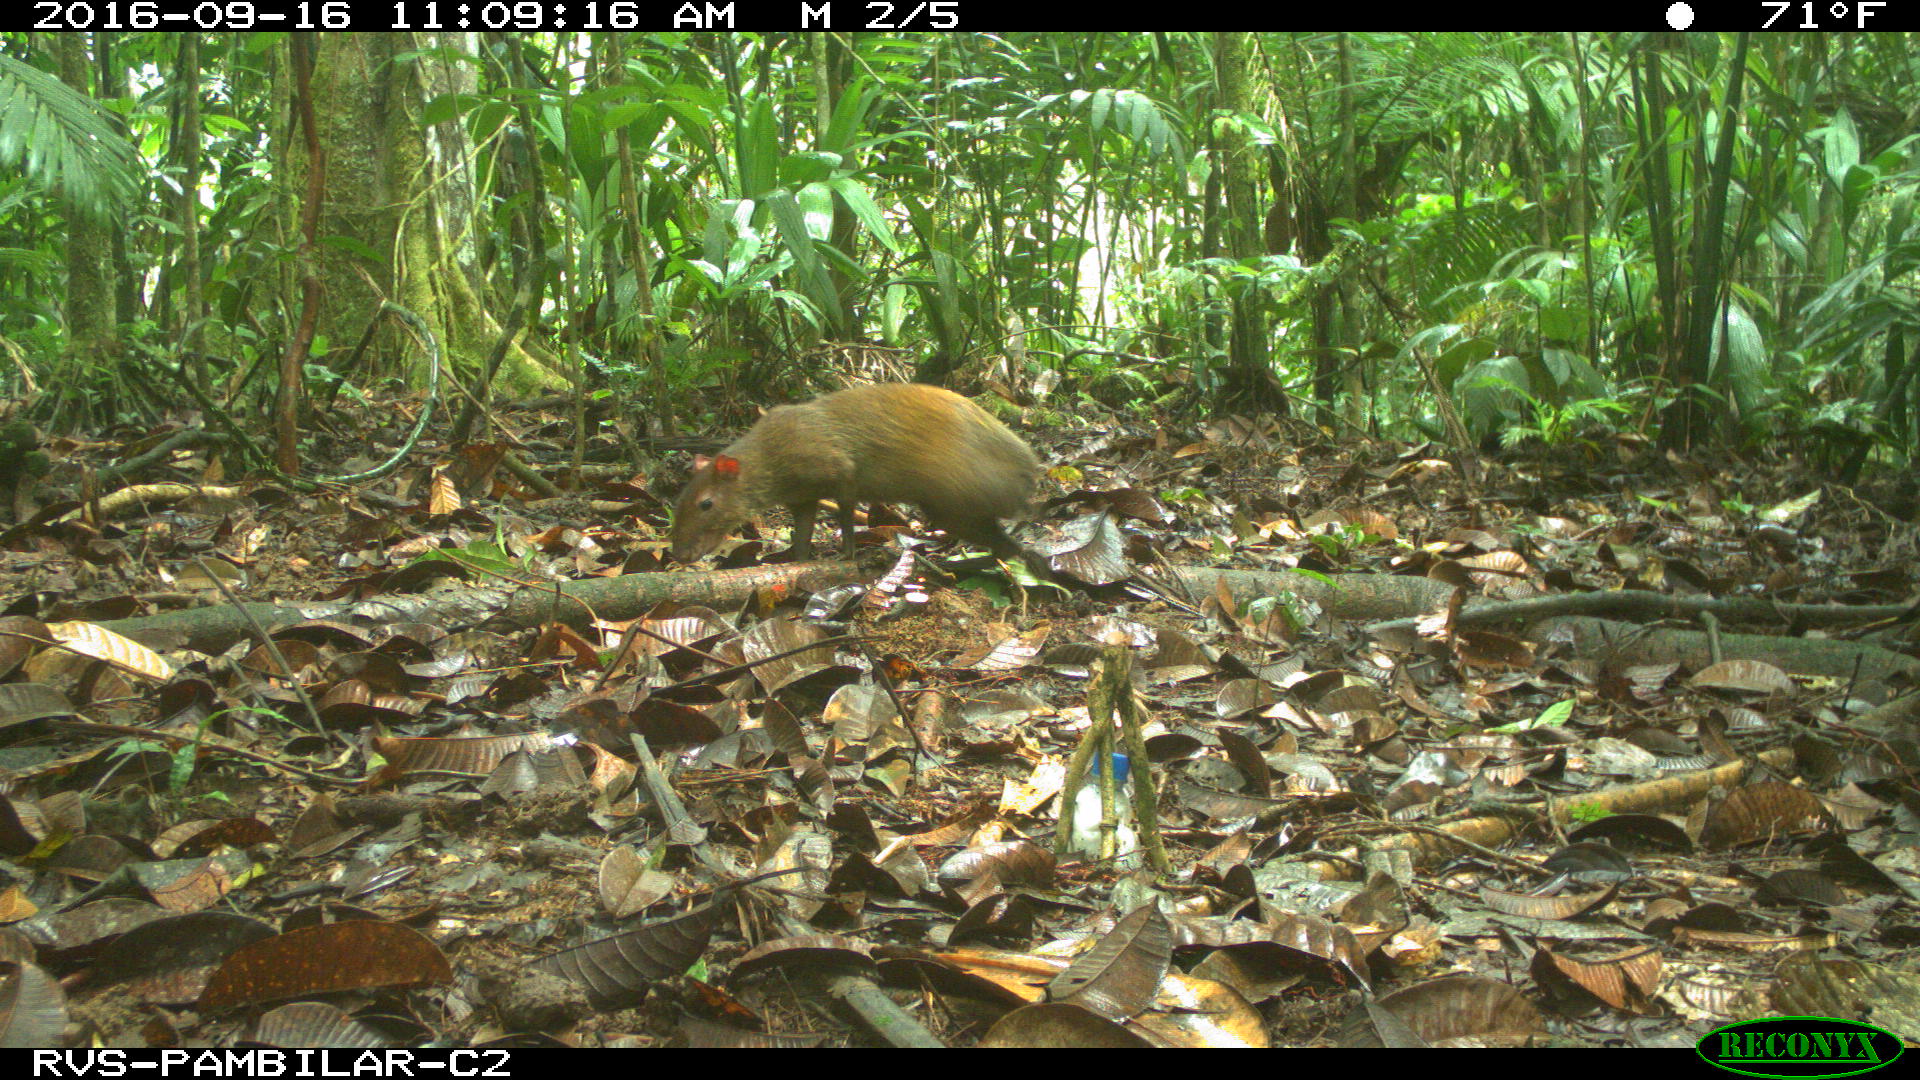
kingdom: Animalia
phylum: Chordata
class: Mammalia
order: Rodentia
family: Dasyproctidae
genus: Dasyprocta
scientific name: Dasyprocta punctata
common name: Central american agouti
